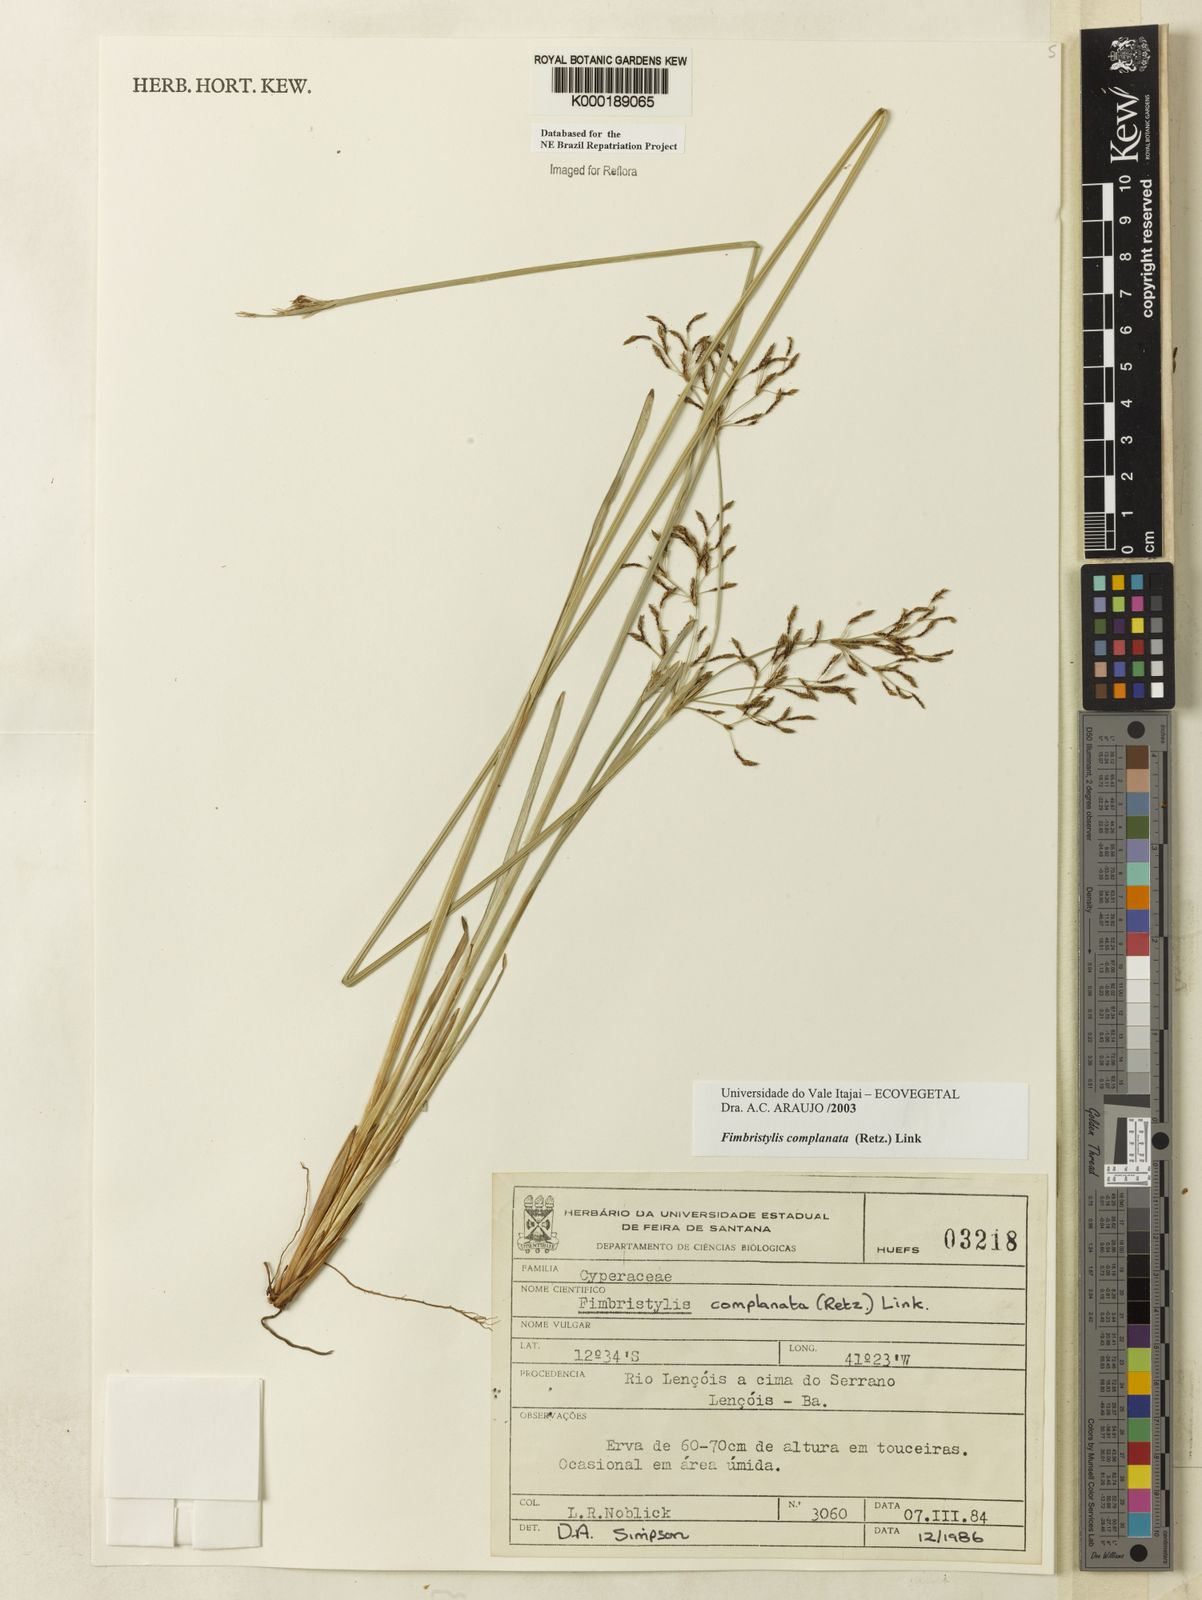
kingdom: Plantae
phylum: Tracheophyta
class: Liliopsida
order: Poales
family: Cyperaceae
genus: Fimbristylis
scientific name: Fimbristylis complanata
